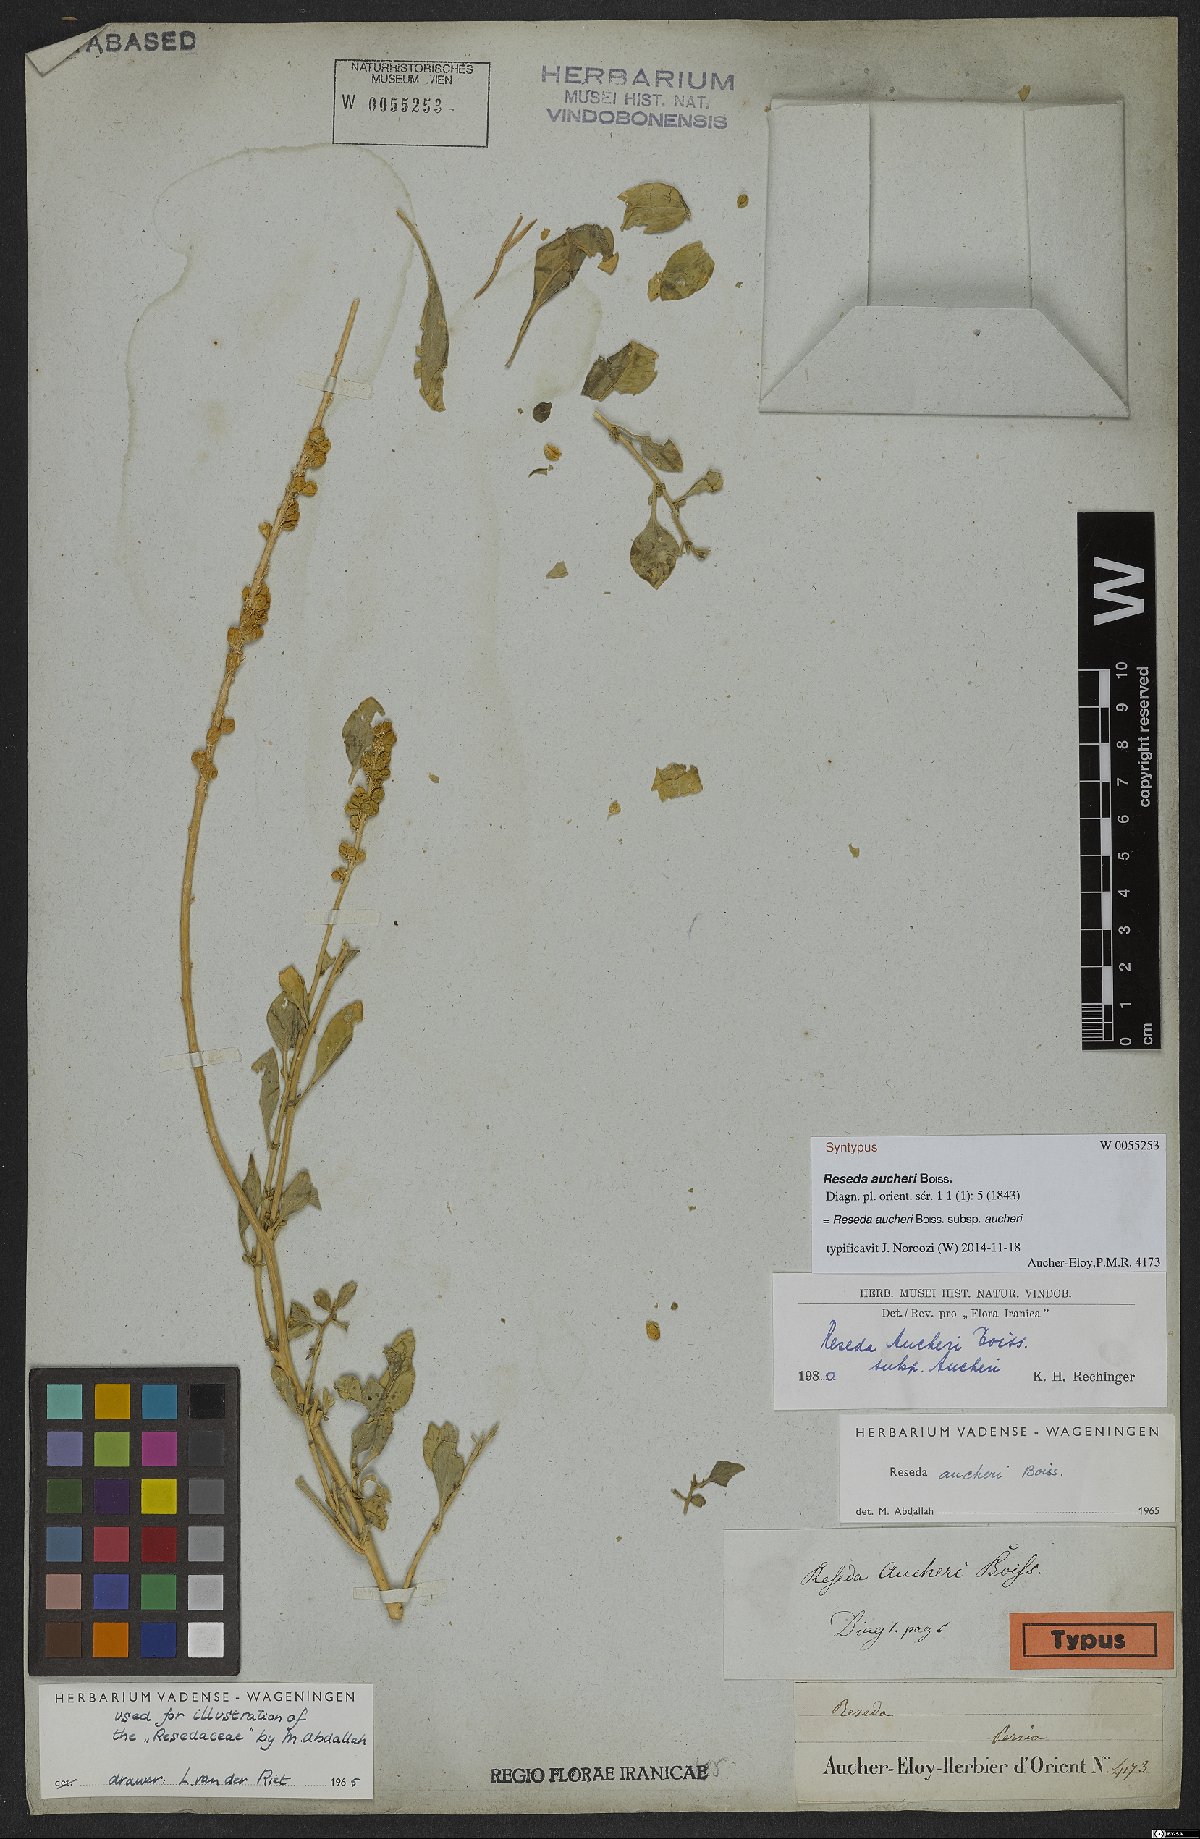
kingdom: Plantae
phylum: Tracheophyta
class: Magnoliopsida
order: Brassicales
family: Resedaceae
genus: Reseda
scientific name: Reseda aucheri
